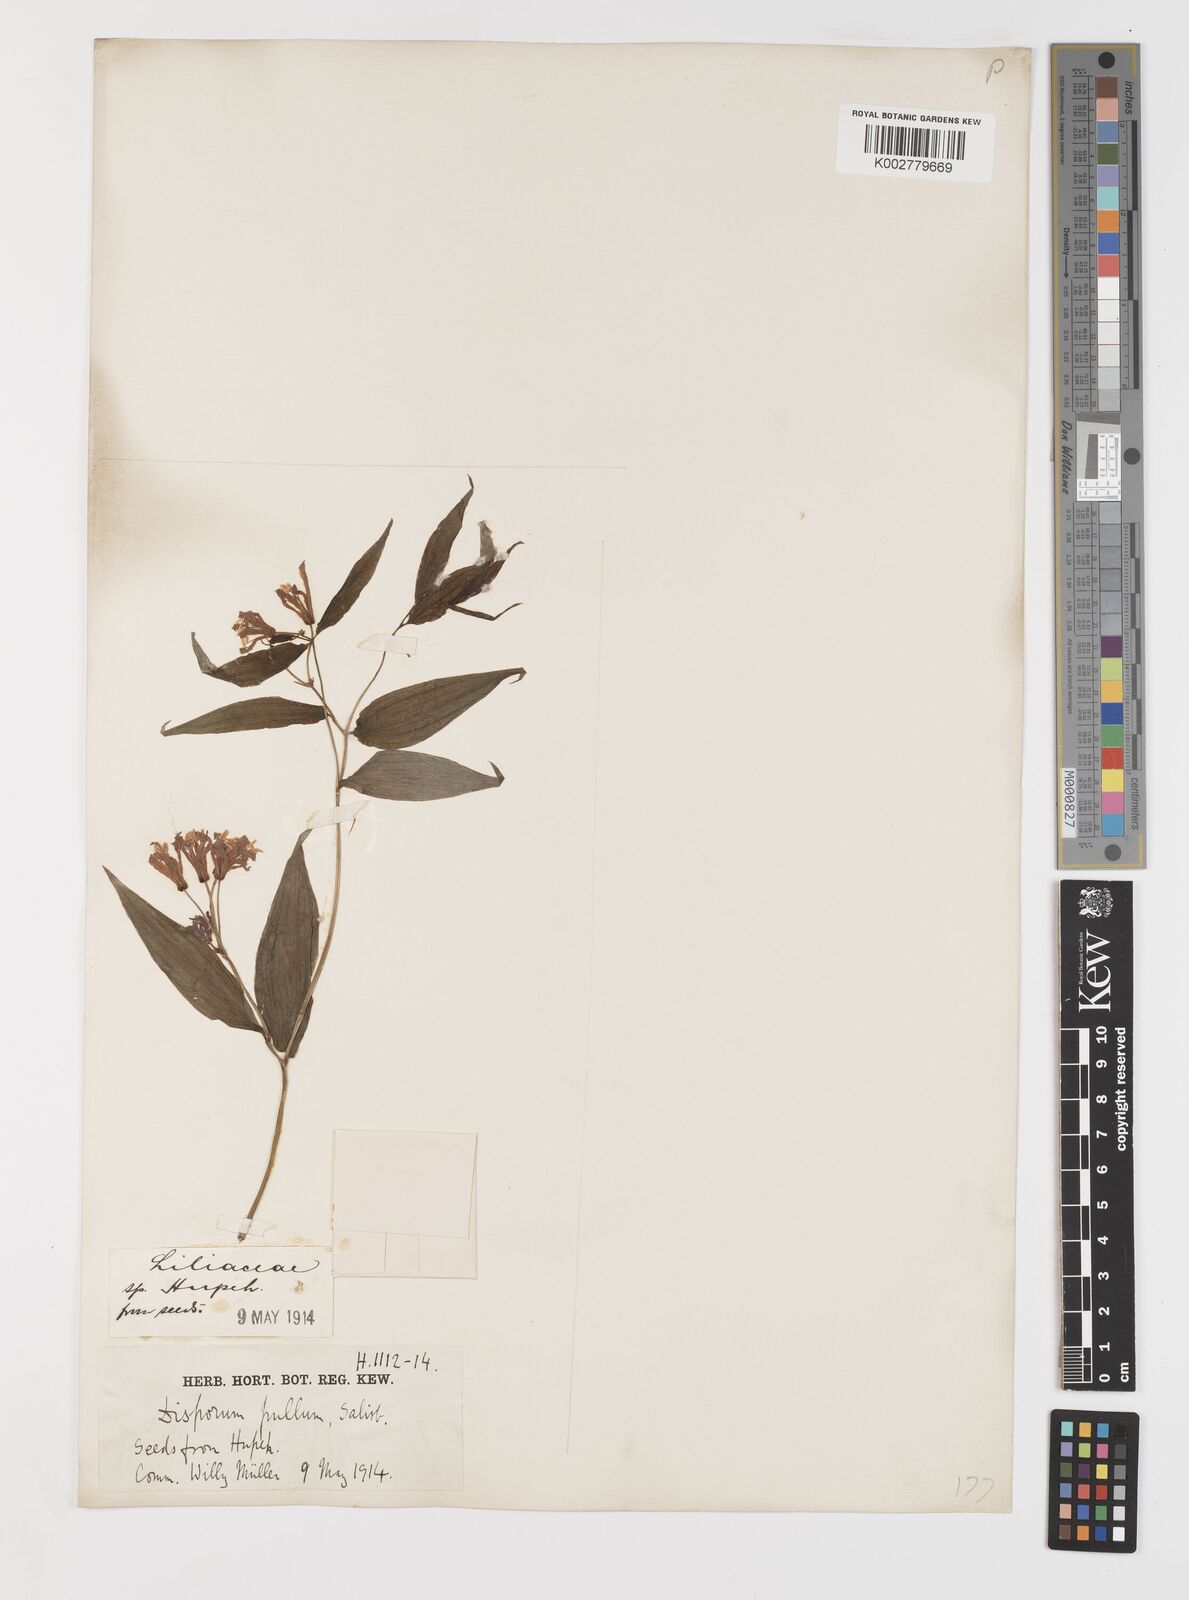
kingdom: Plantae
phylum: Tracheophyta
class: Liliopsida
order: Liliales
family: Colchicaceae
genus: Disporum
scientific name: Disporum cantoniense
